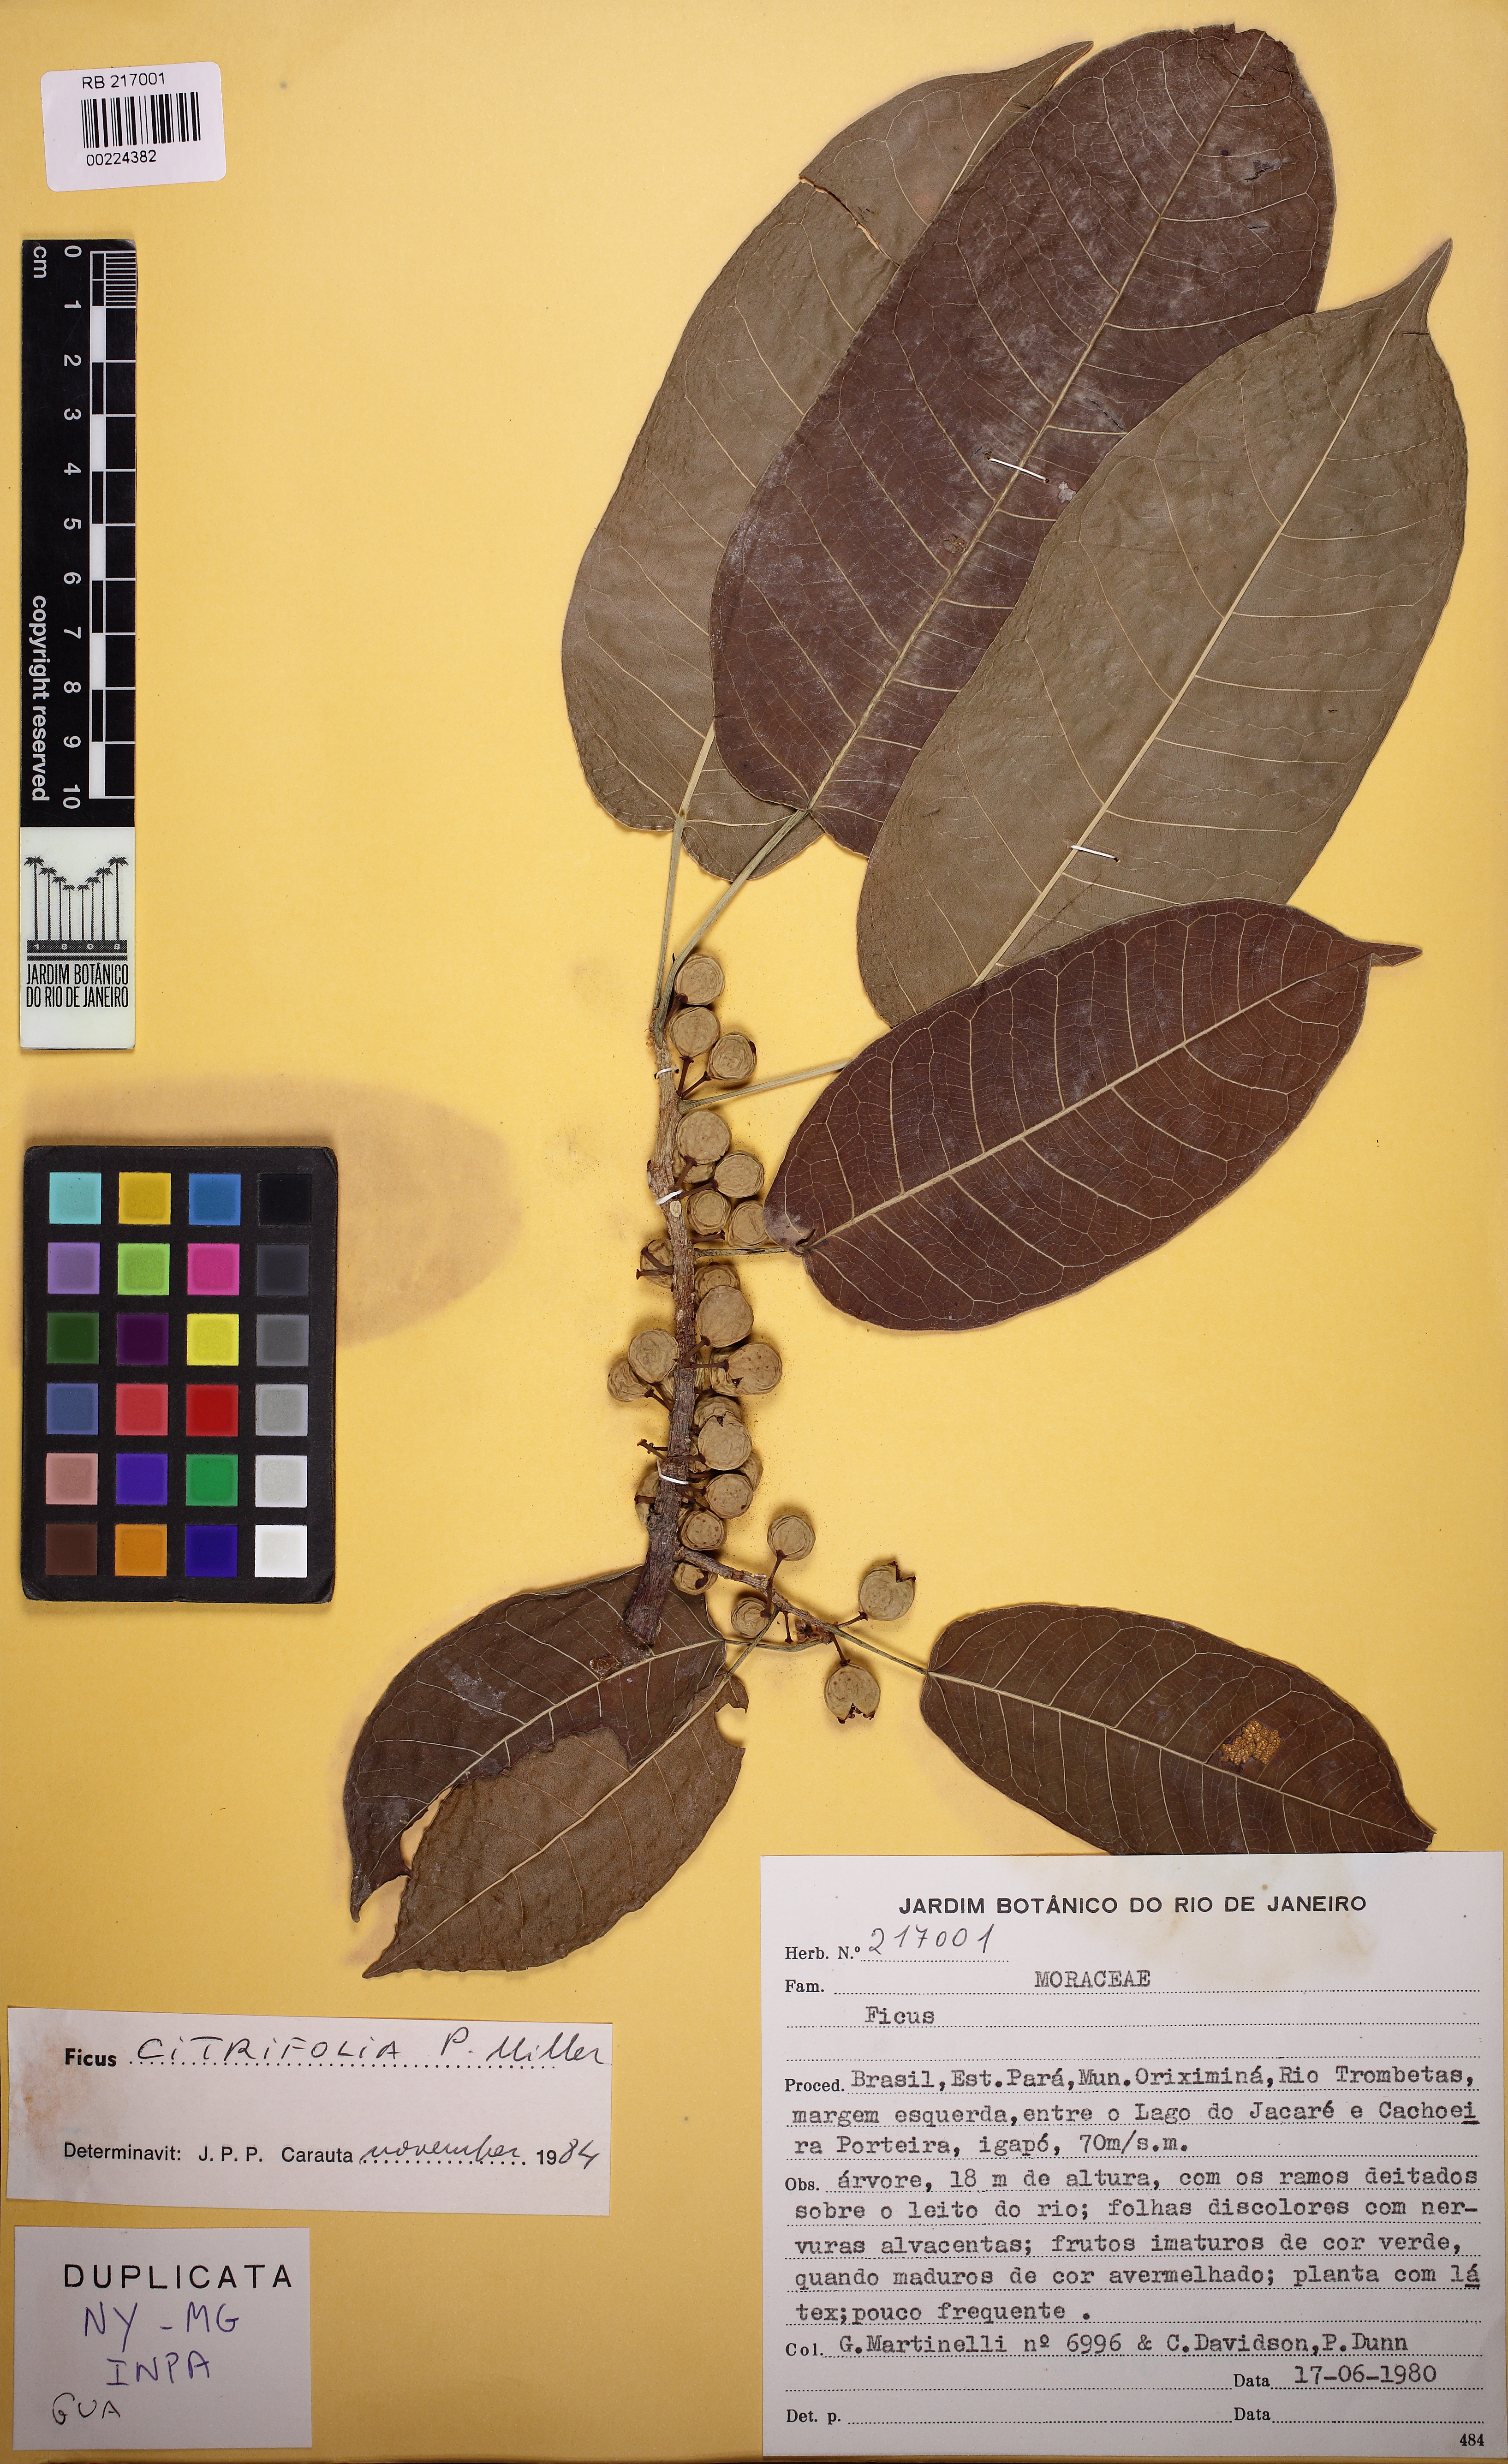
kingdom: Plantae
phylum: Tracheophyta
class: Magnoliopsida
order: Rosales
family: Moraceae
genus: Ficus
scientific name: Ficus amazonica
